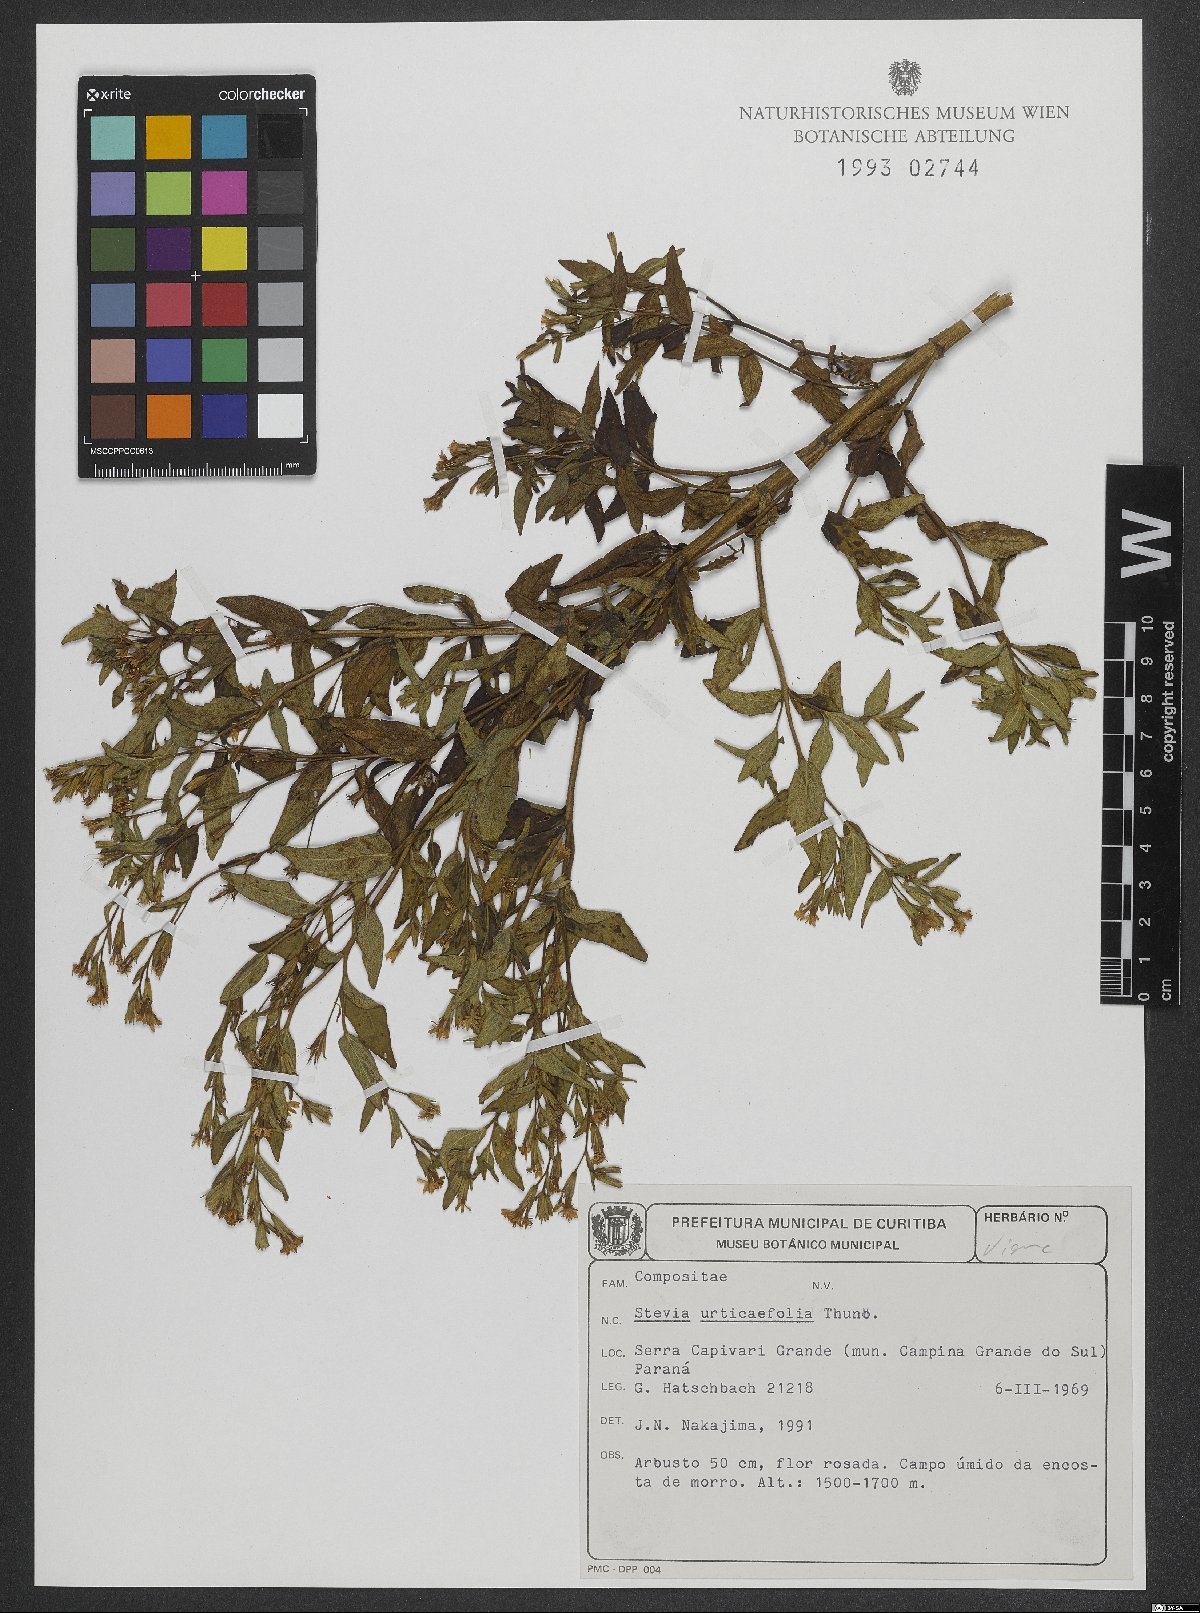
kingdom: Plantae
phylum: Tracheophyta
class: Magnoliopsida
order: Asterales
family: Asteraceae
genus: Stevia
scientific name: Stevia urticifolia
